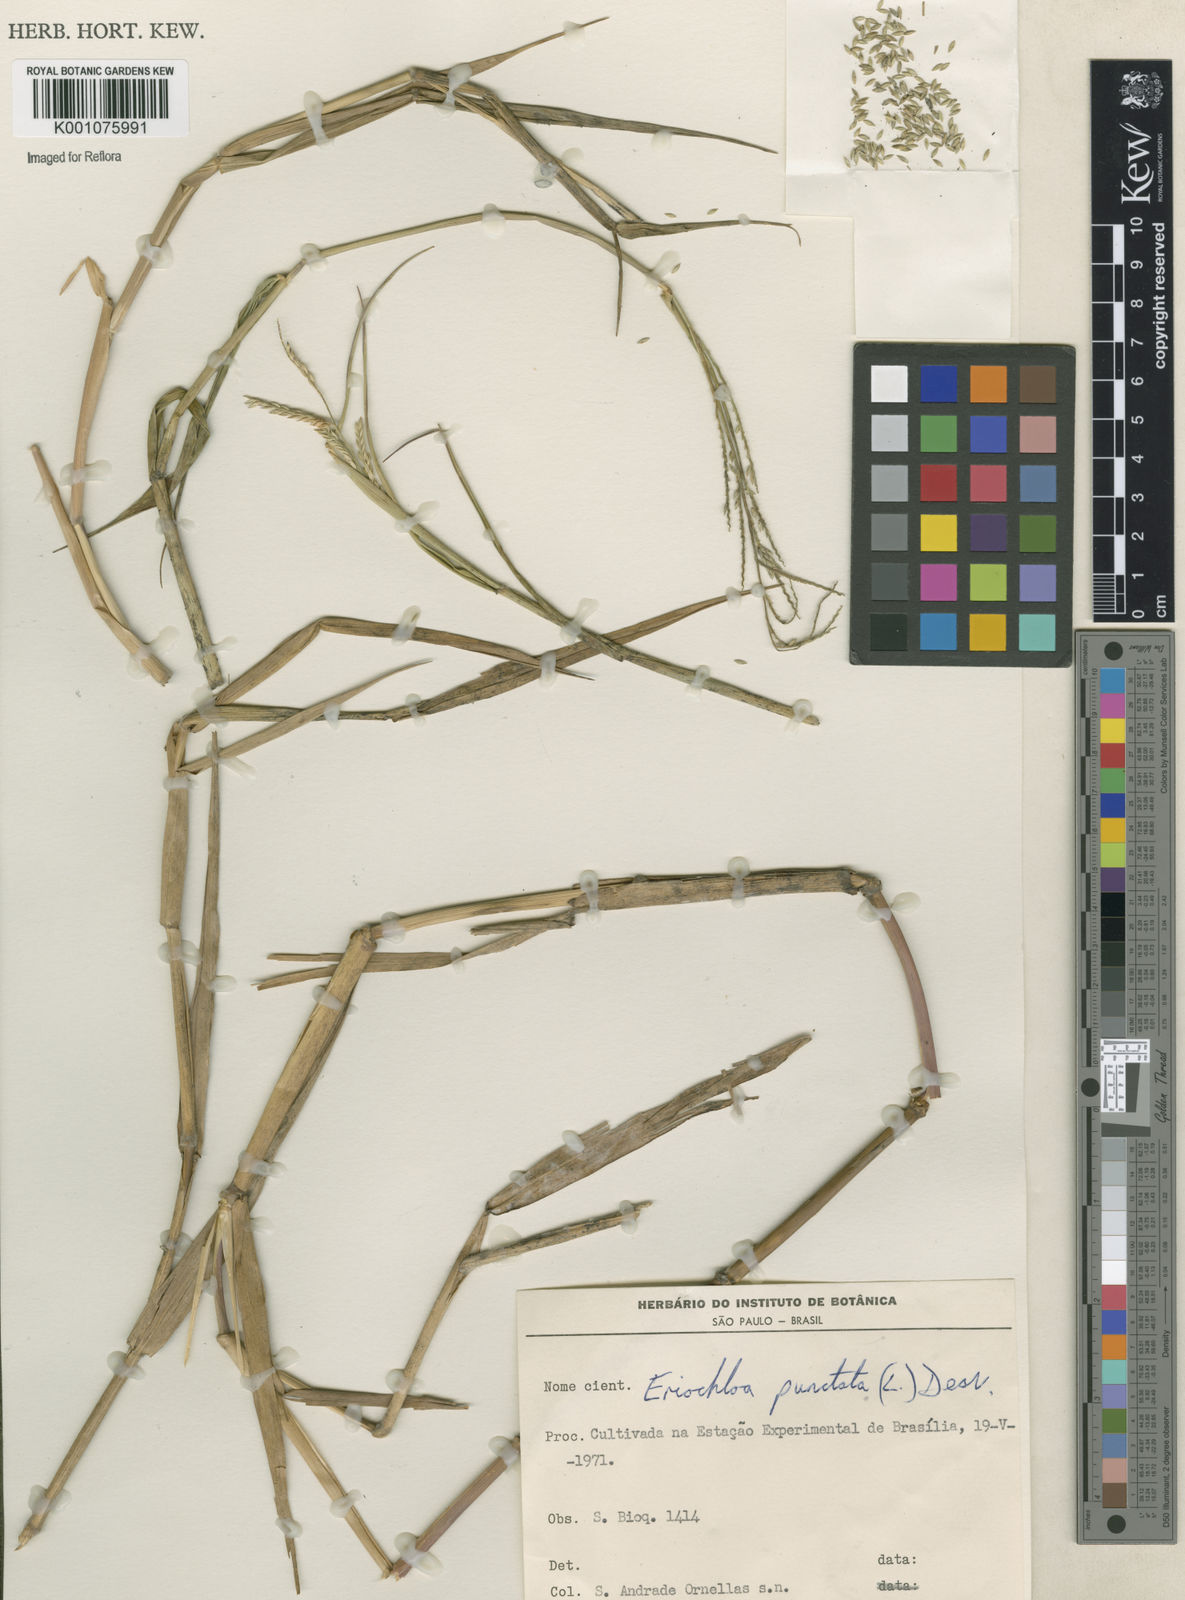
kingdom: Plantae
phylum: Tracheophyta
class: Liliopsida
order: Poales
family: Poaceae
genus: Eriochloa
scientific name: Eriochloa punctata
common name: Louisiana cupgrass
